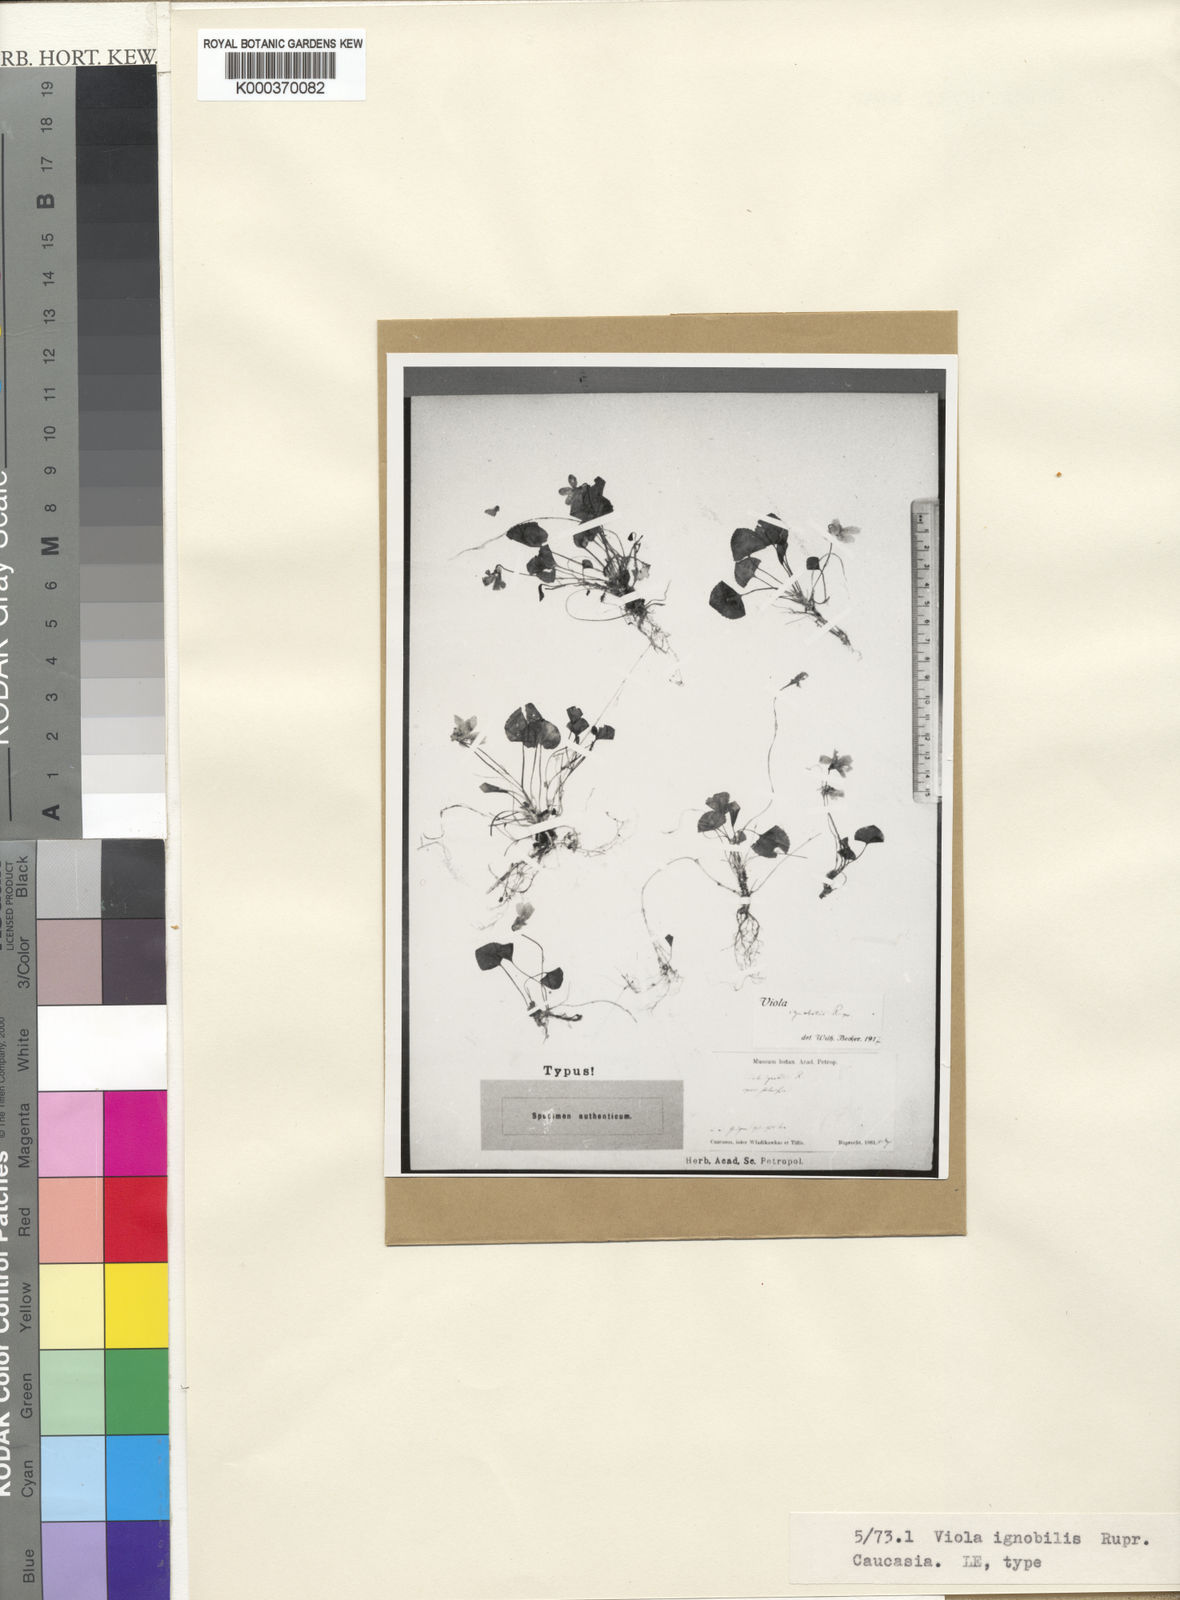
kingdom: Plantae
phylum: Tracheophyta
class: Magnoliopsida
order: Malpighiales
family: Violaceae
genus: Viola
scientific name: Viola odorata
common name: Sweet violet
